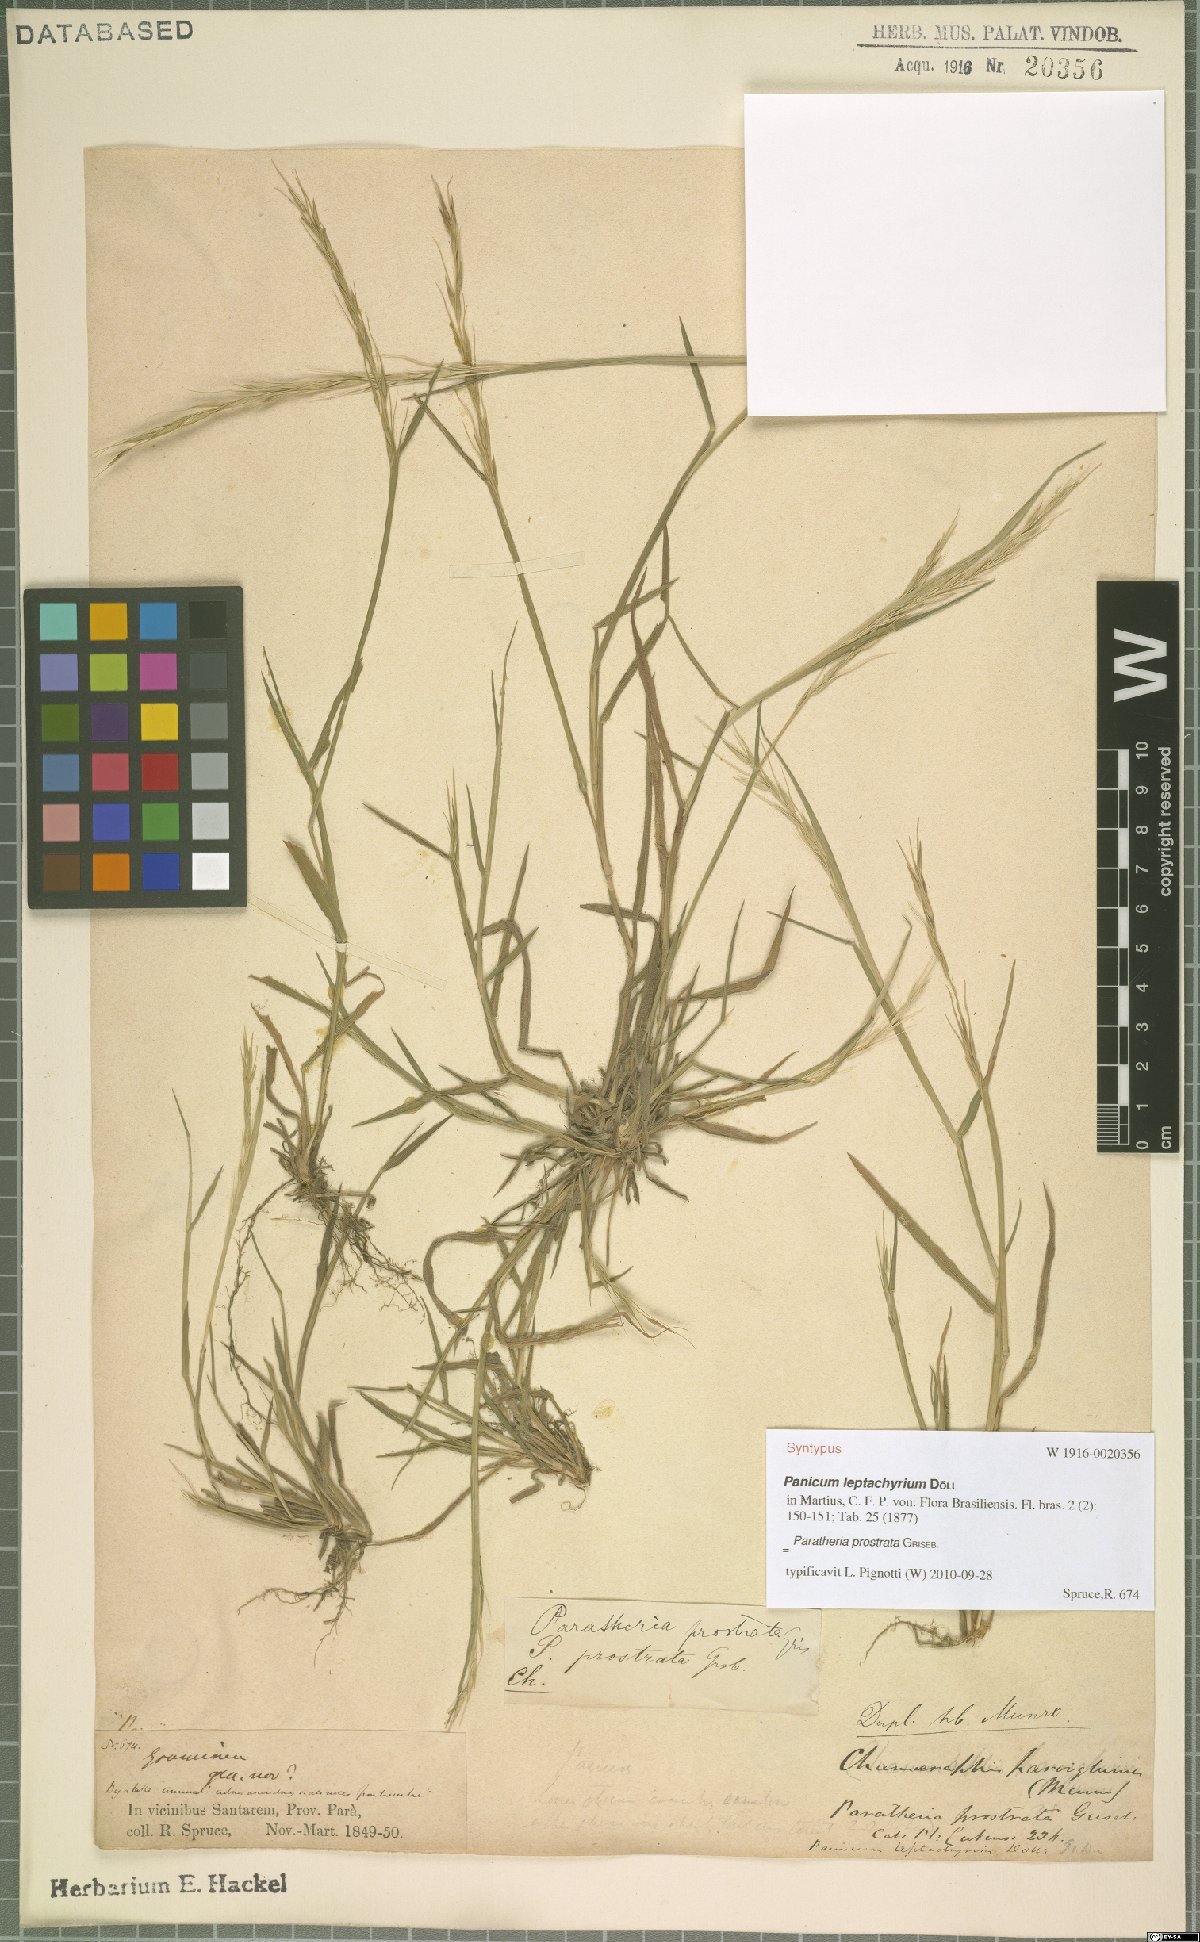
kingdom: Plantae
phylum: Tracheophyta
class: Liliopsida
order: Poales
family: Poaceae
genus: Paratheria
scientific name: Paratheria prostrata
